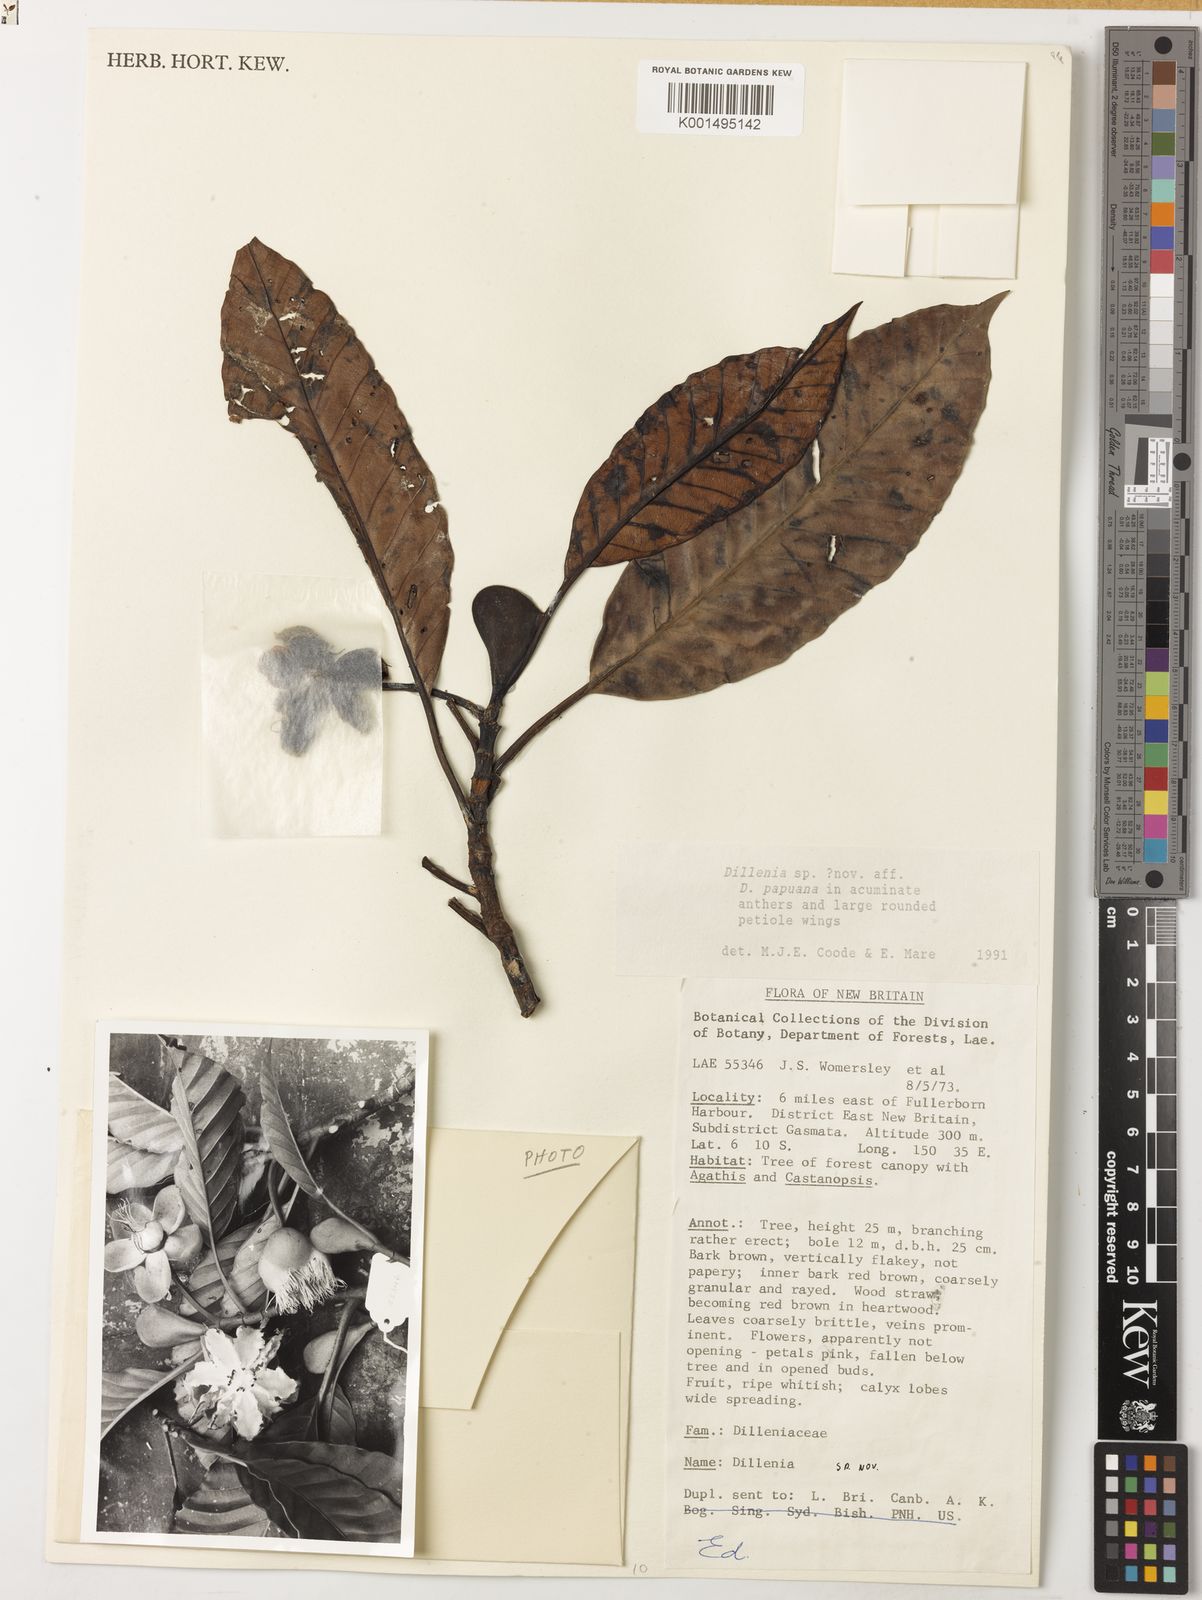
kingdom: Plantae
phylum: Tracheophyta
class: Magnoliopsida
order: Dilleniales
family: Dilleniaceae
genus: Dillenia
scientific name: Dillenia
